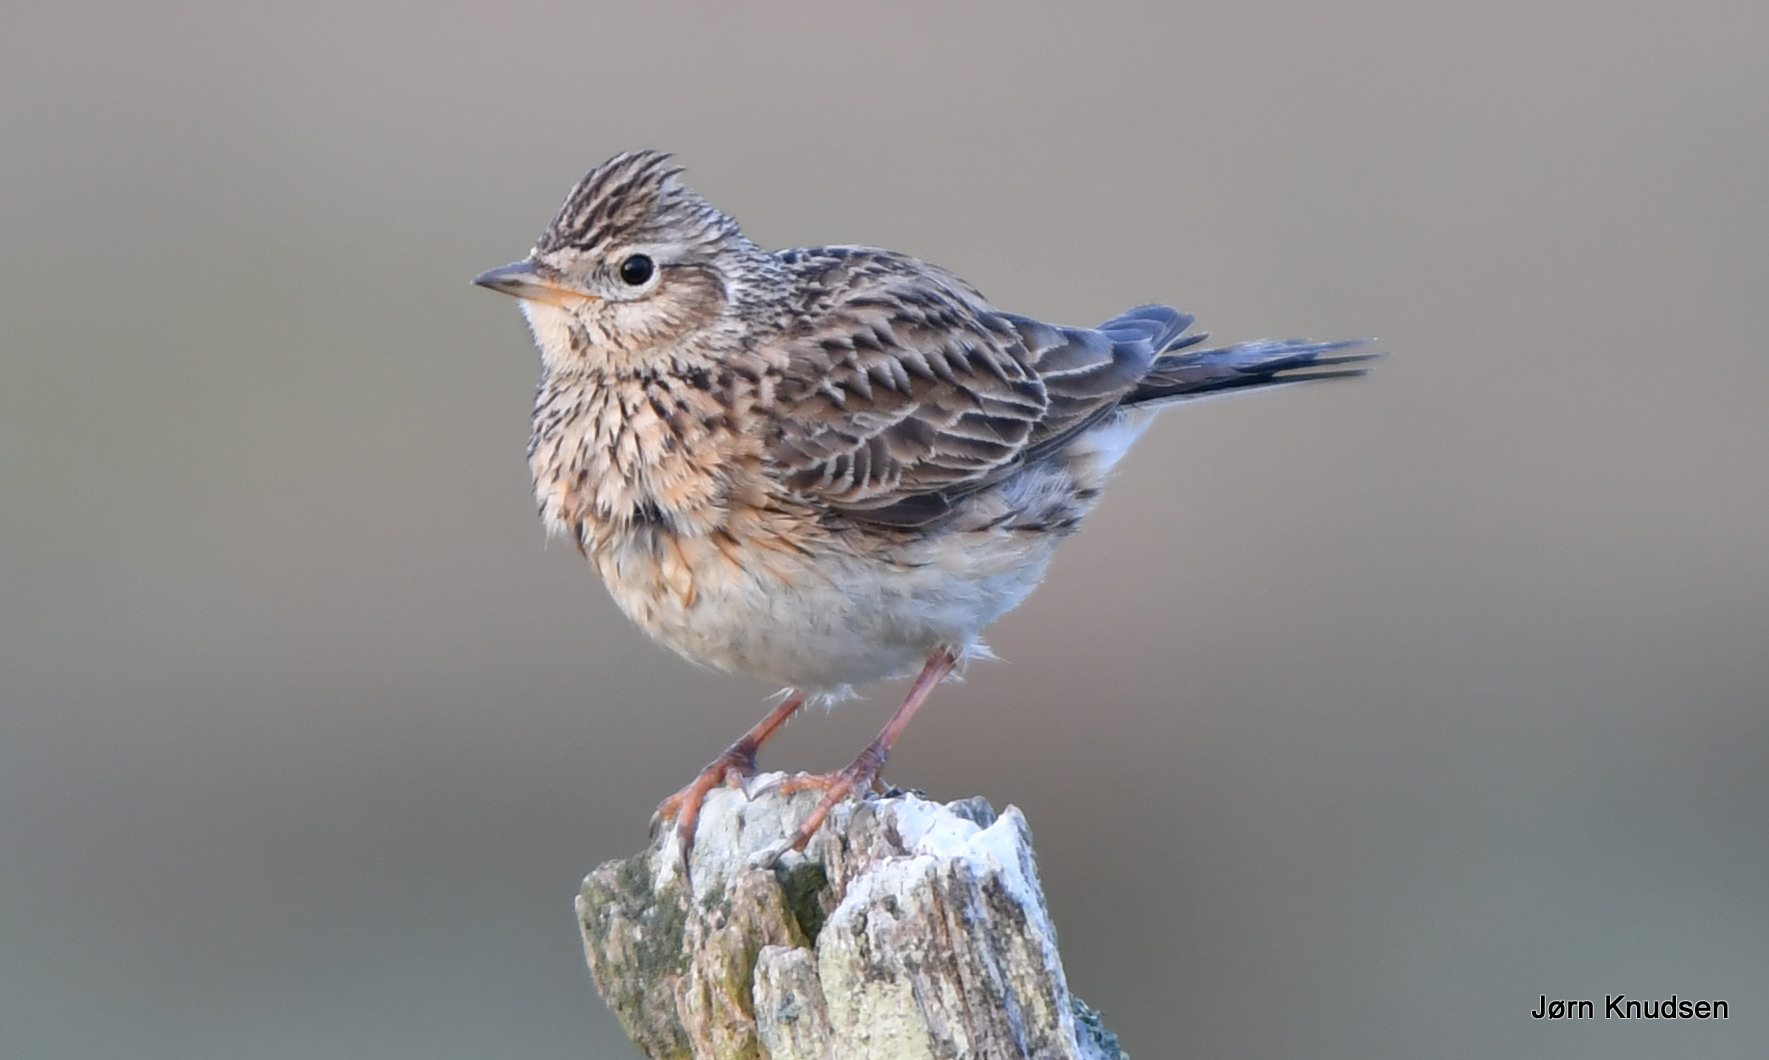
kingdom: Animalia
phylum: Chordata
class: Aves
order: Passeriformes
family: Alaudidae
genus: Alauda
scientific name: Alauda arvensis
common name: Sanglærke
